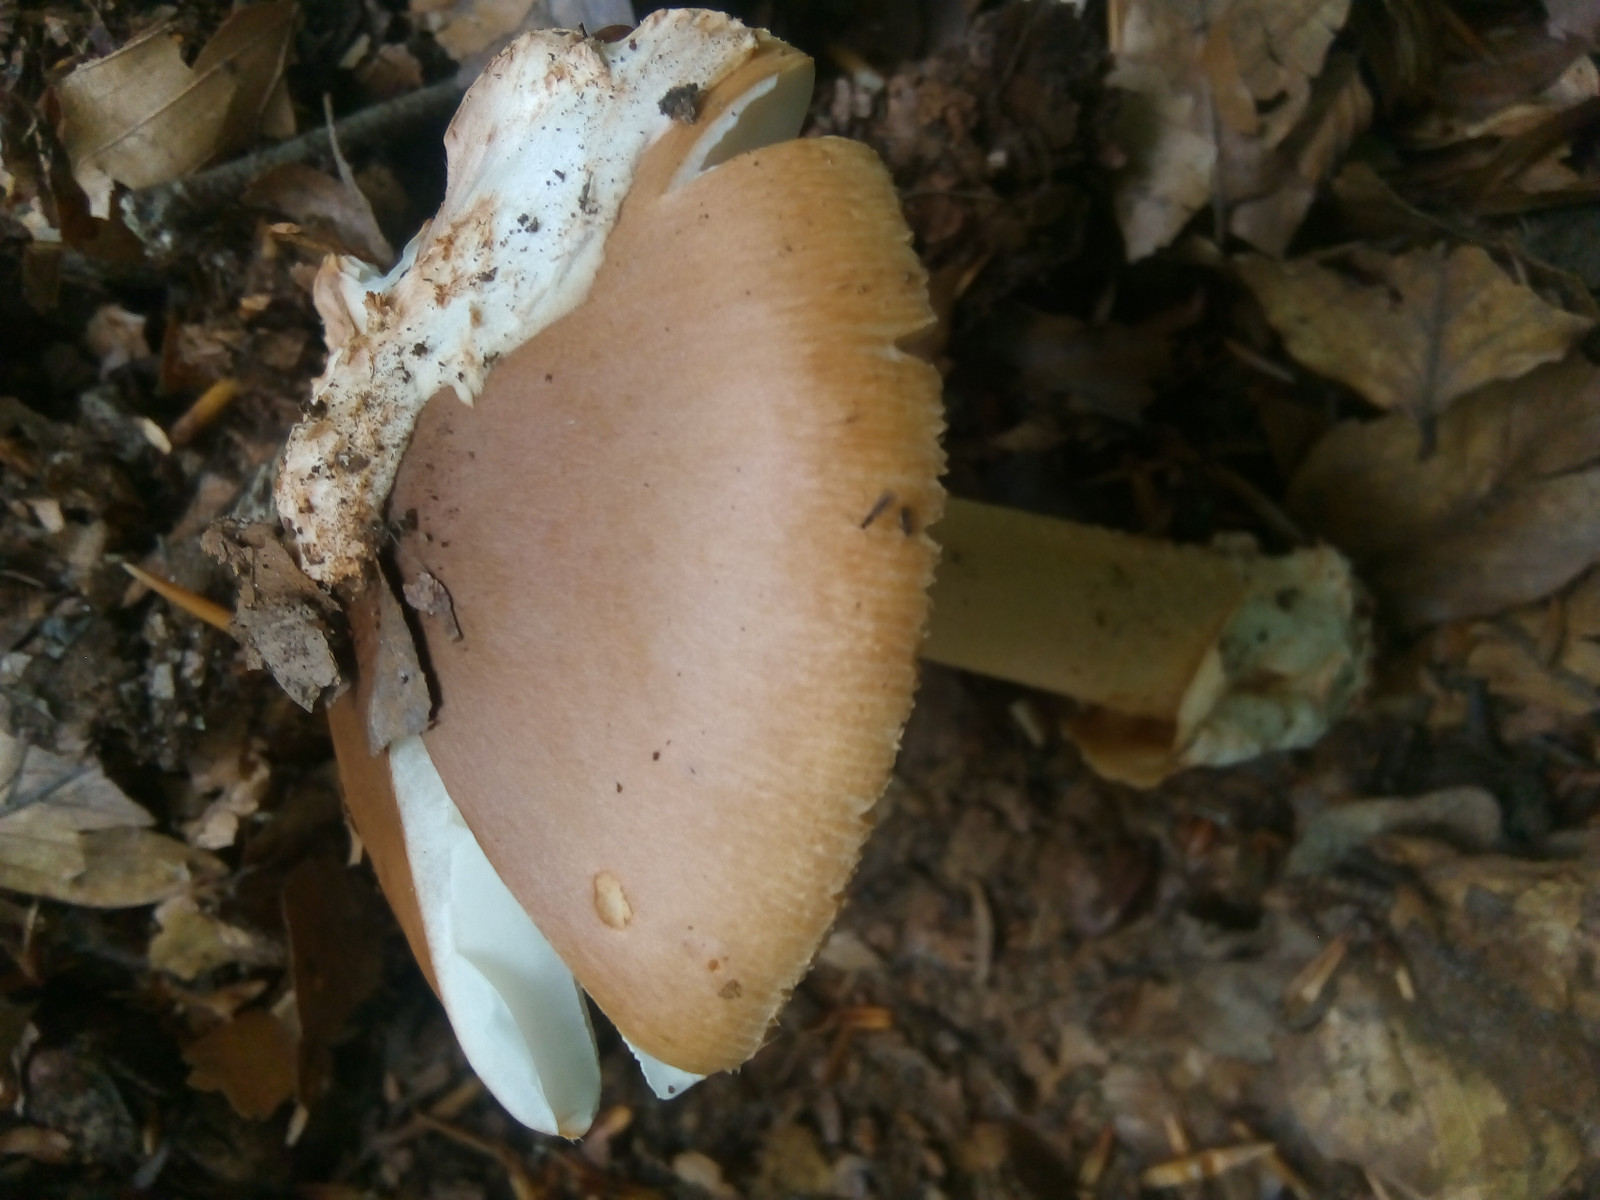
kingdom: Fungi
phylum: Basidiomycota
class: Agaricomycetes
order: Agaricales
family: Amanitaceae
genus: Amanita
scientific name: Amanita fulva
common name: brun kam-fluesvamp
